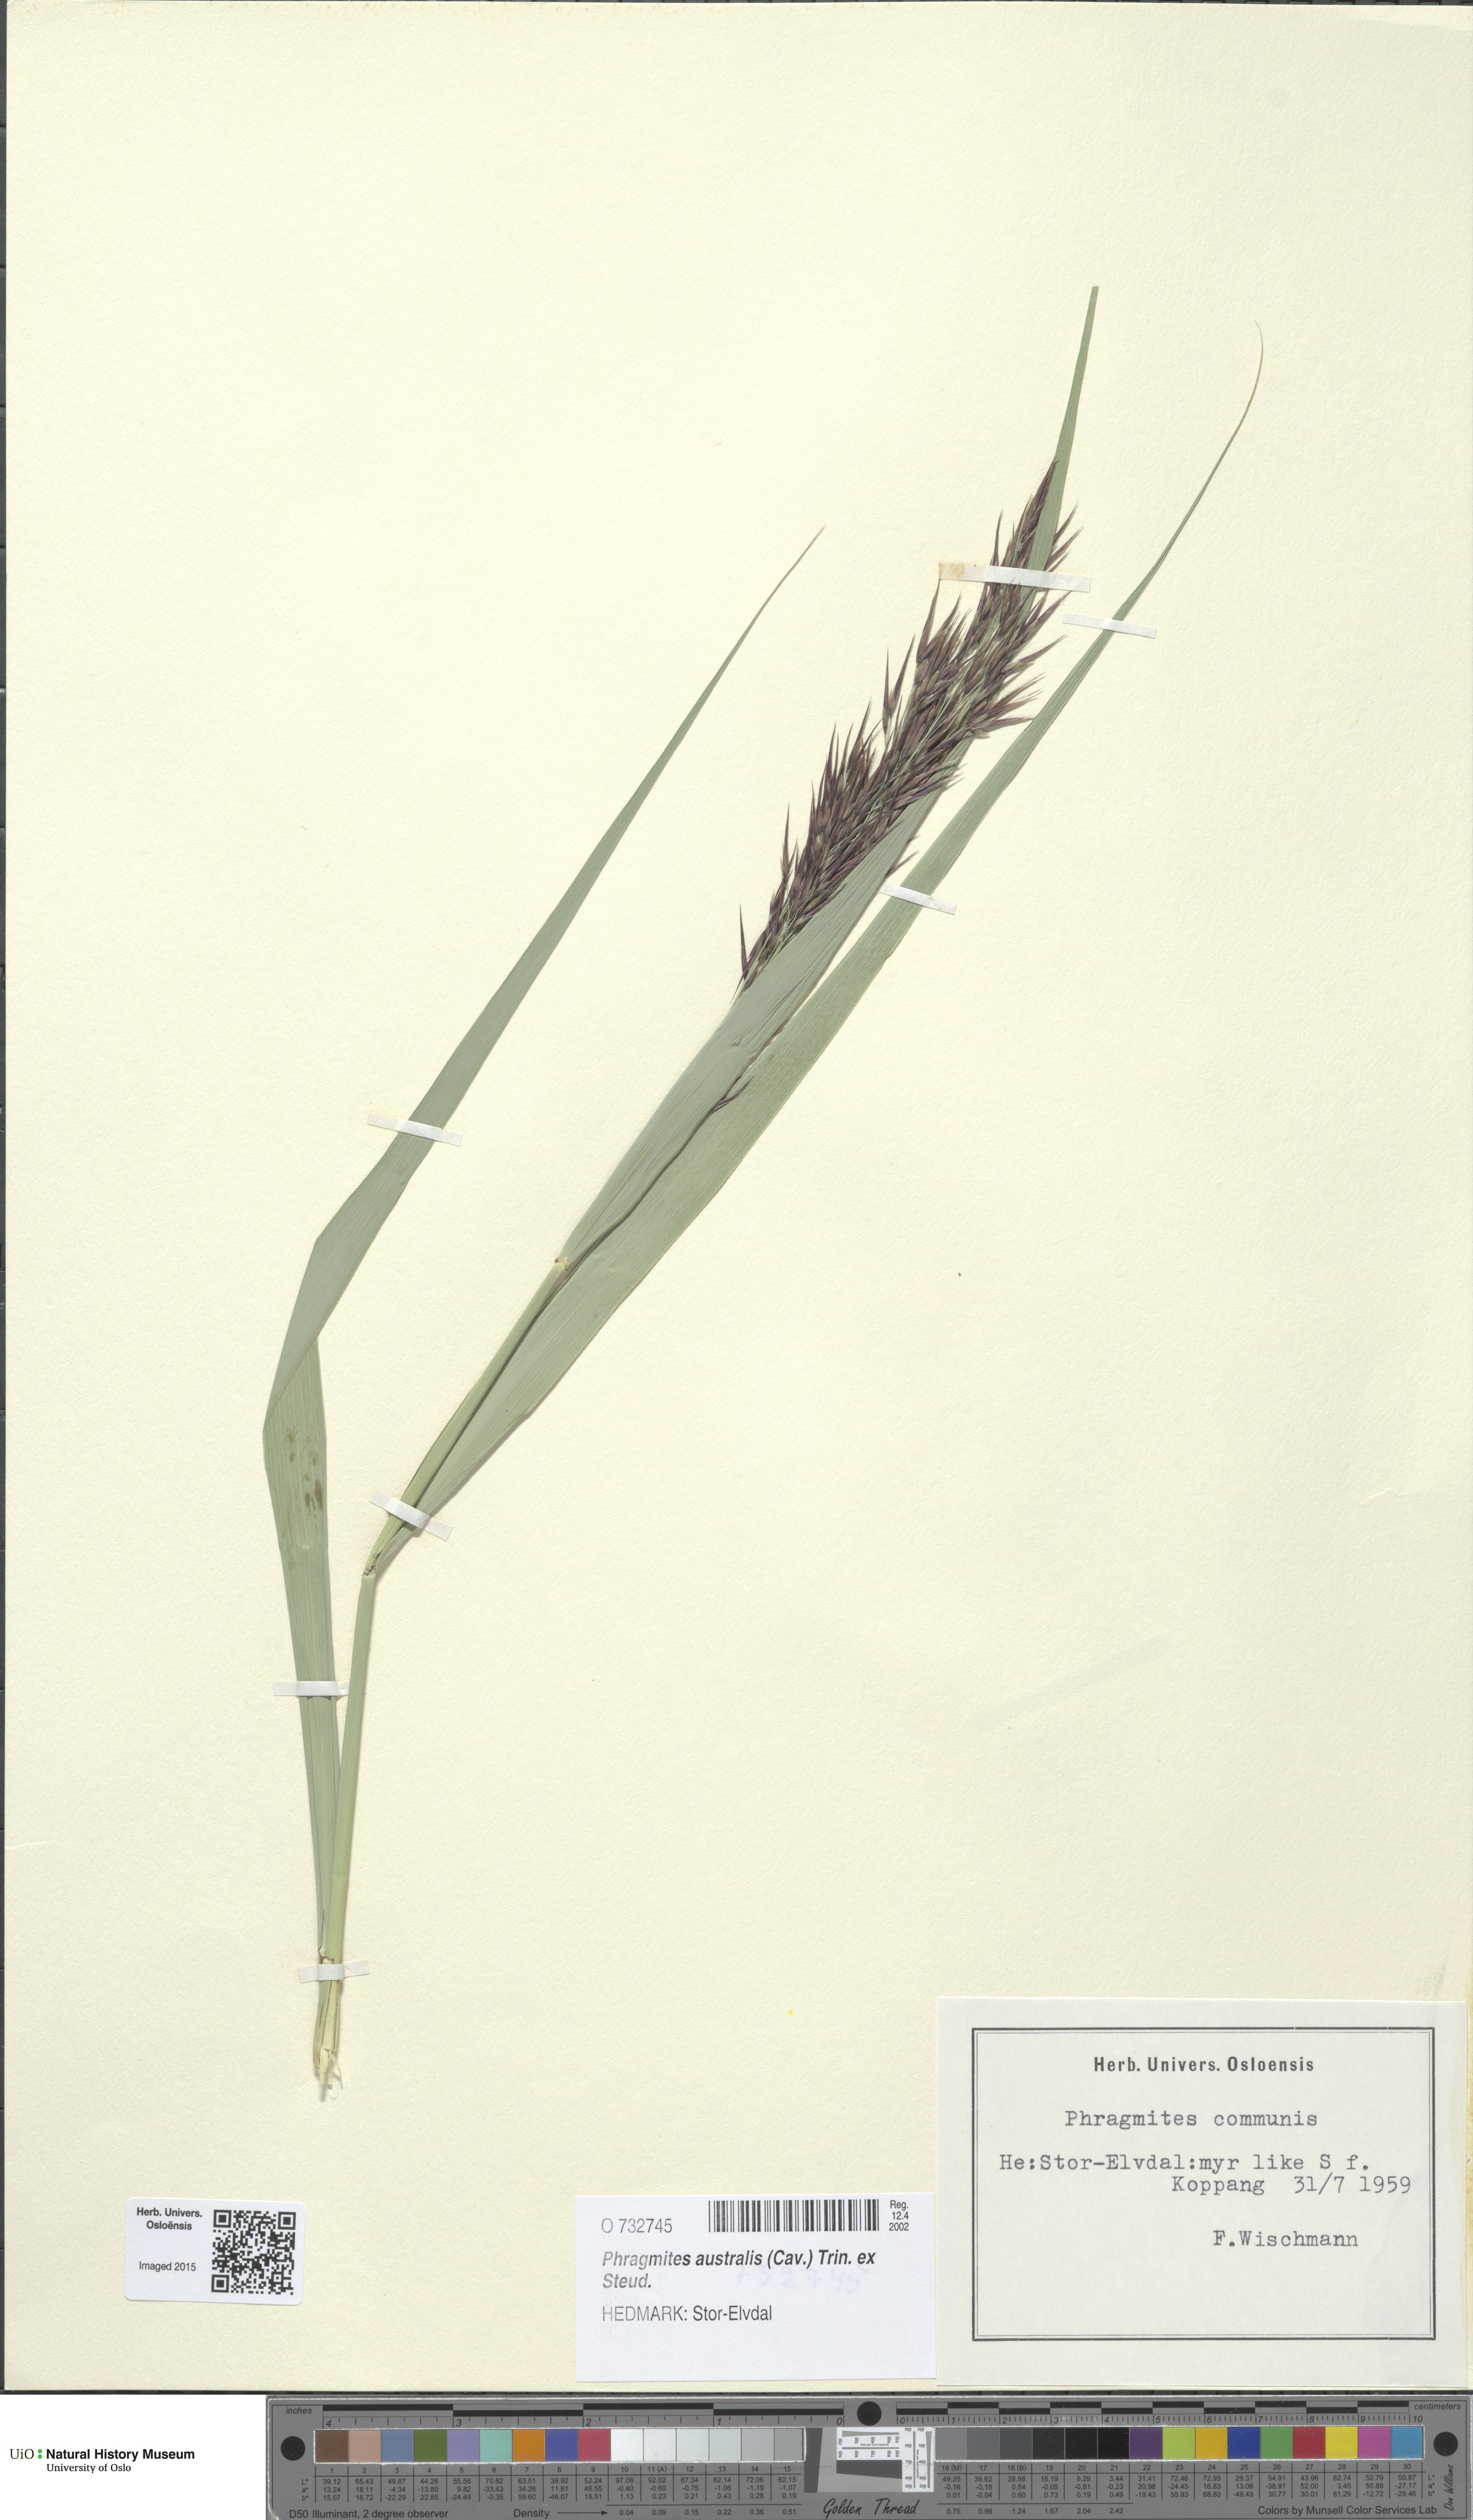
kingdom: Plantae
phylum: Tracheophyta
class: Liliopsida
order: Poales
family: Poaceae
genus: Phragmites
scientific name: Phragmites australis
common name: Common reed
